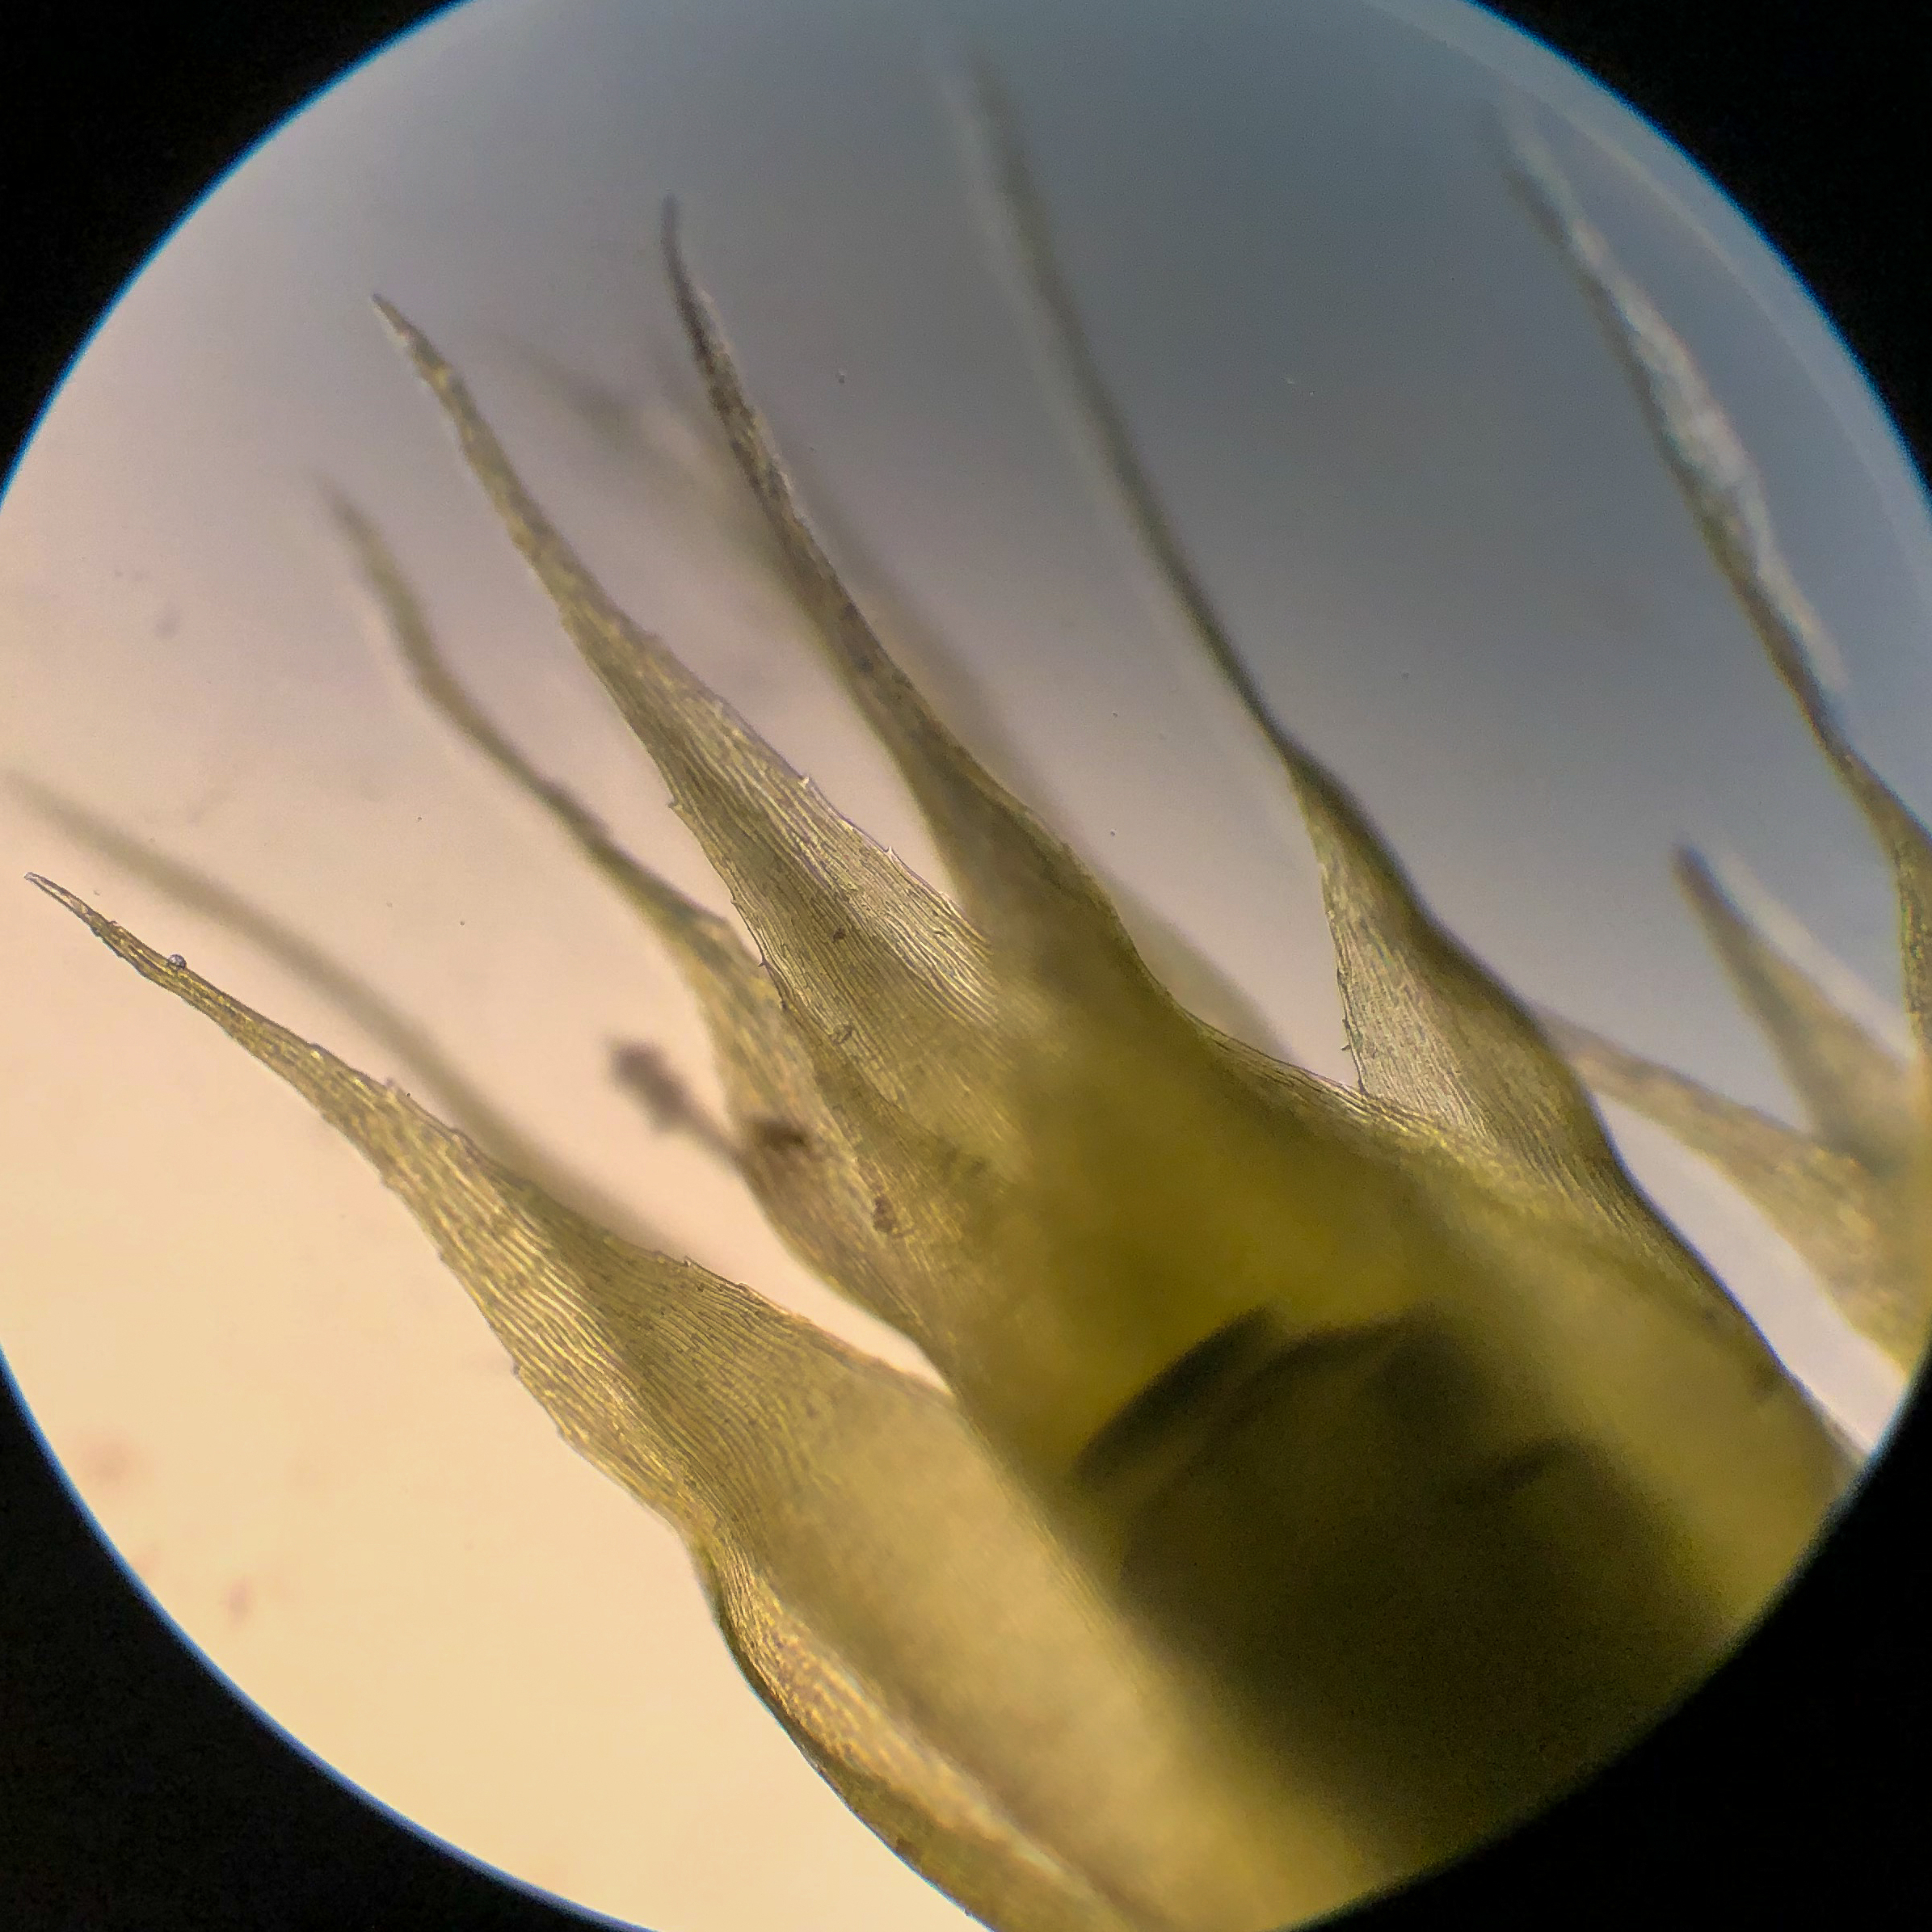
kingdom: Plantae
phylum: Bryophyta
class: Bryopsida
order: Hypnales
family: Brachytheciaceae
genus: Kindbergia
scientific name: Kindbergia praelonga
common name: Forskelligbladet vortetand
